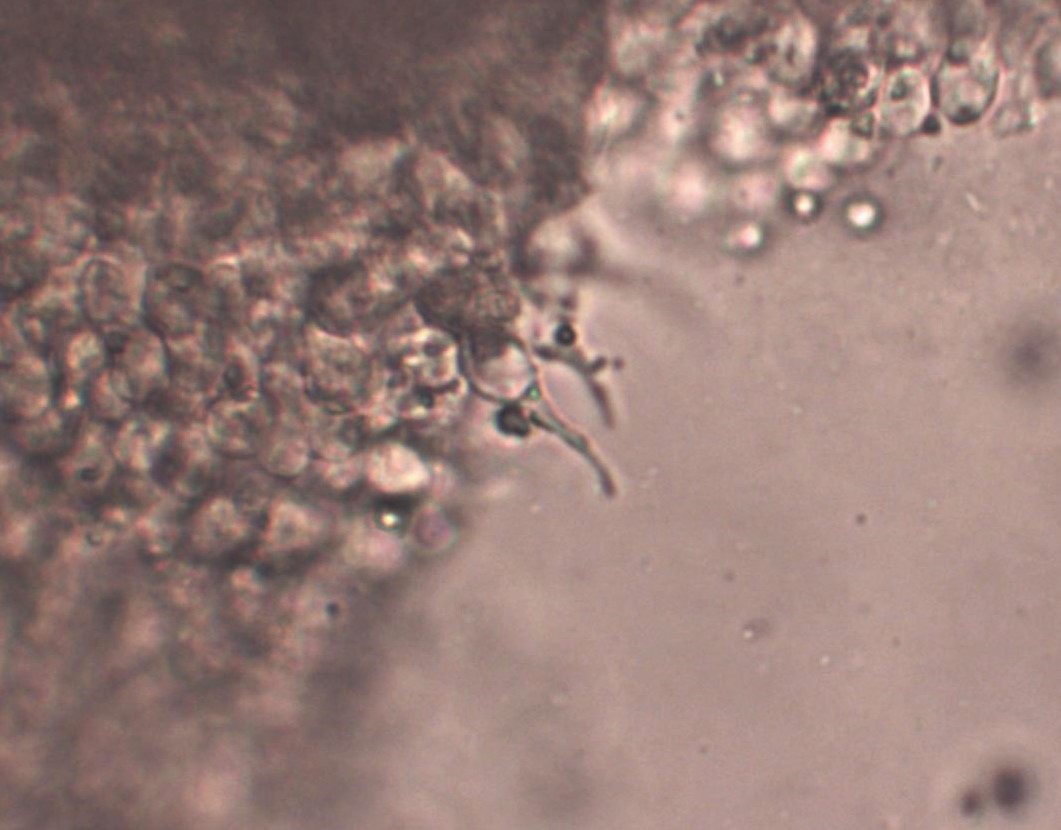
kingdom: Fungi
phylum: Basidiomycota
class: Agaricomycetes
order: Agaricales
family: Mycenaceae
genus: Mycena
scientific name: Mycena tenerrima
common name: pudret huesvamp
